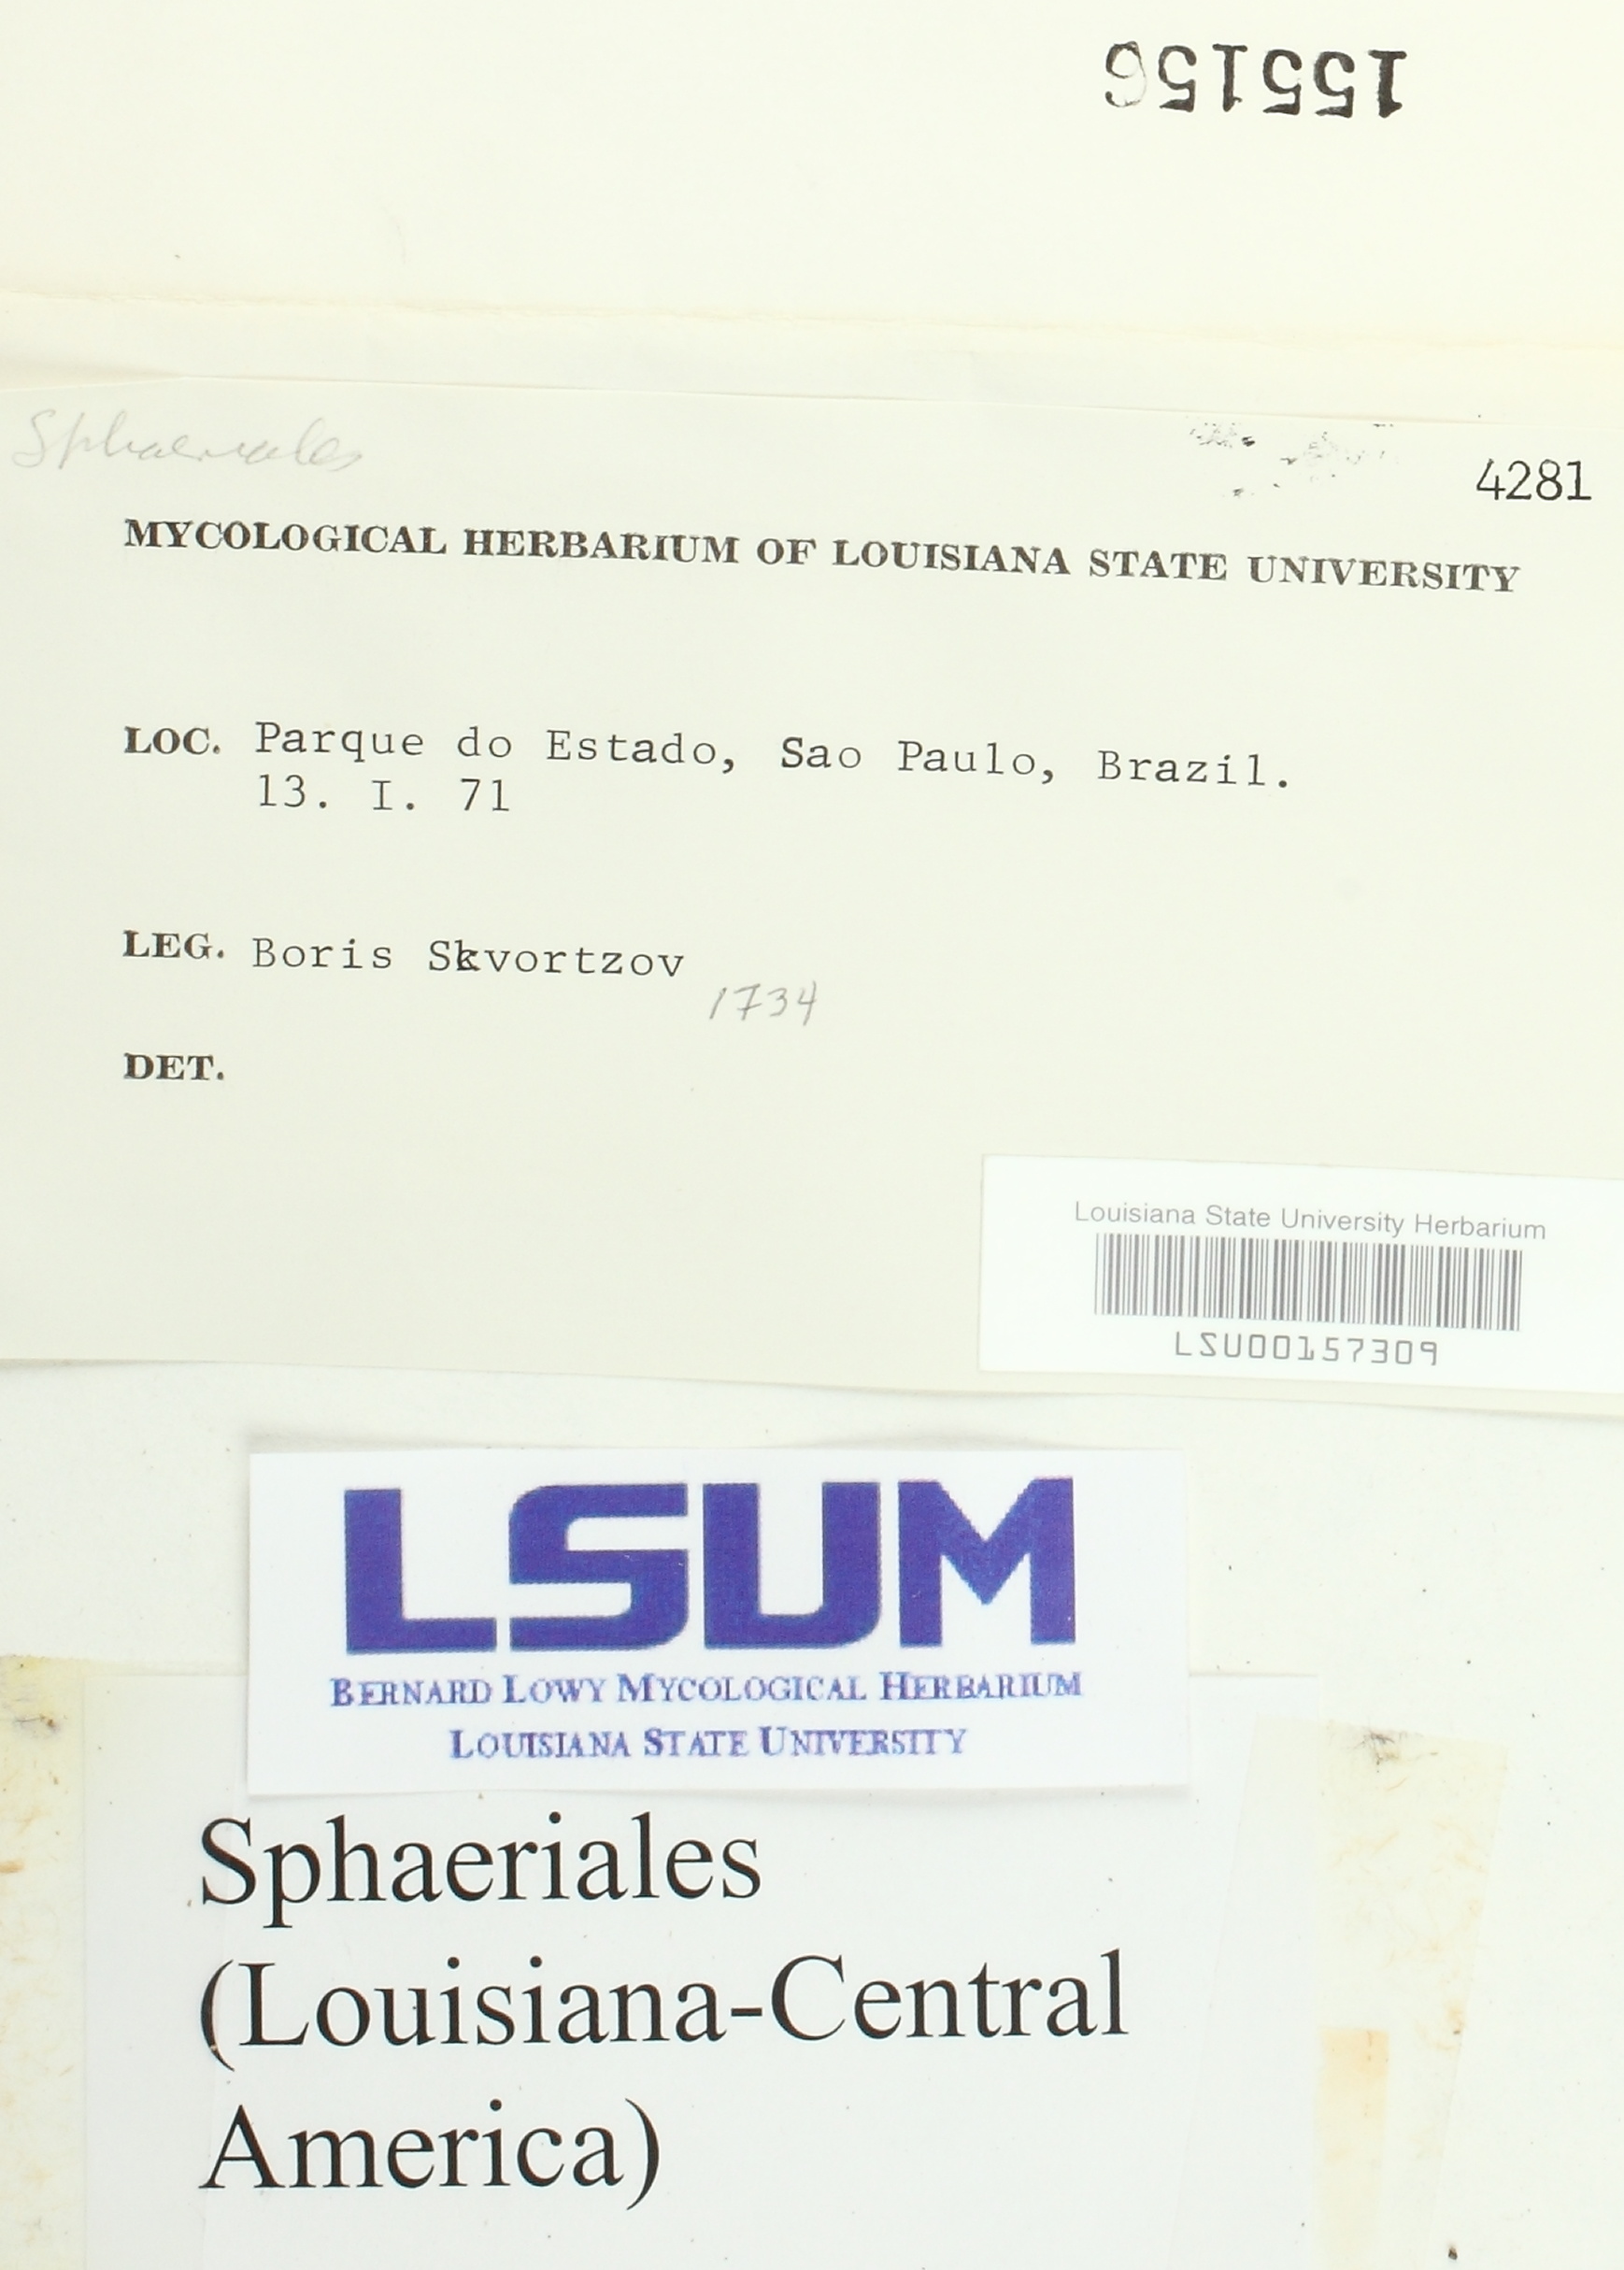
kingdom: Fungi
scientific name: Fungi
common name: Fungi
